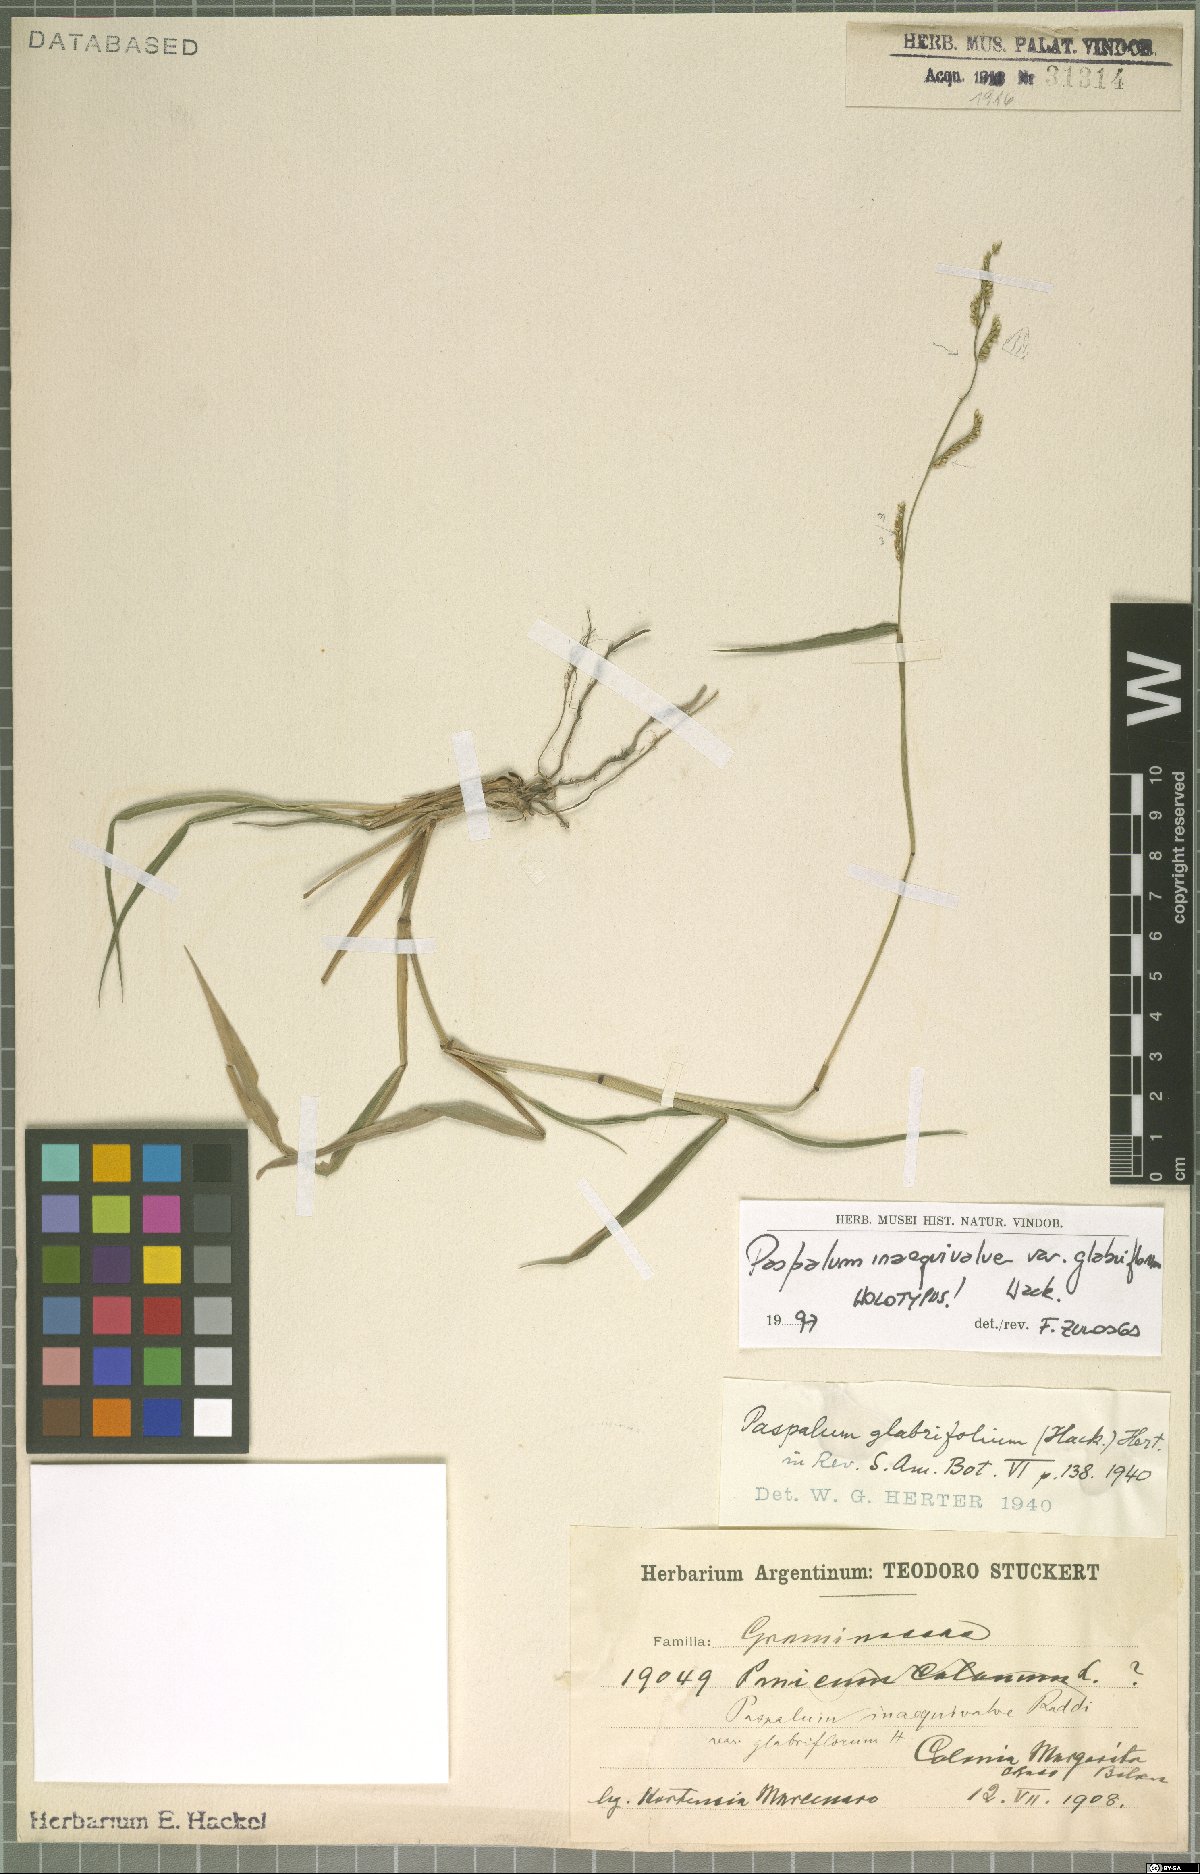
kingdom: Plantae
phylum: Tracheophyta
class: Liliopsida
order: Poales
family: Poaceae
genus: Paspalum
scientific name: Paspalum inaequivalve
